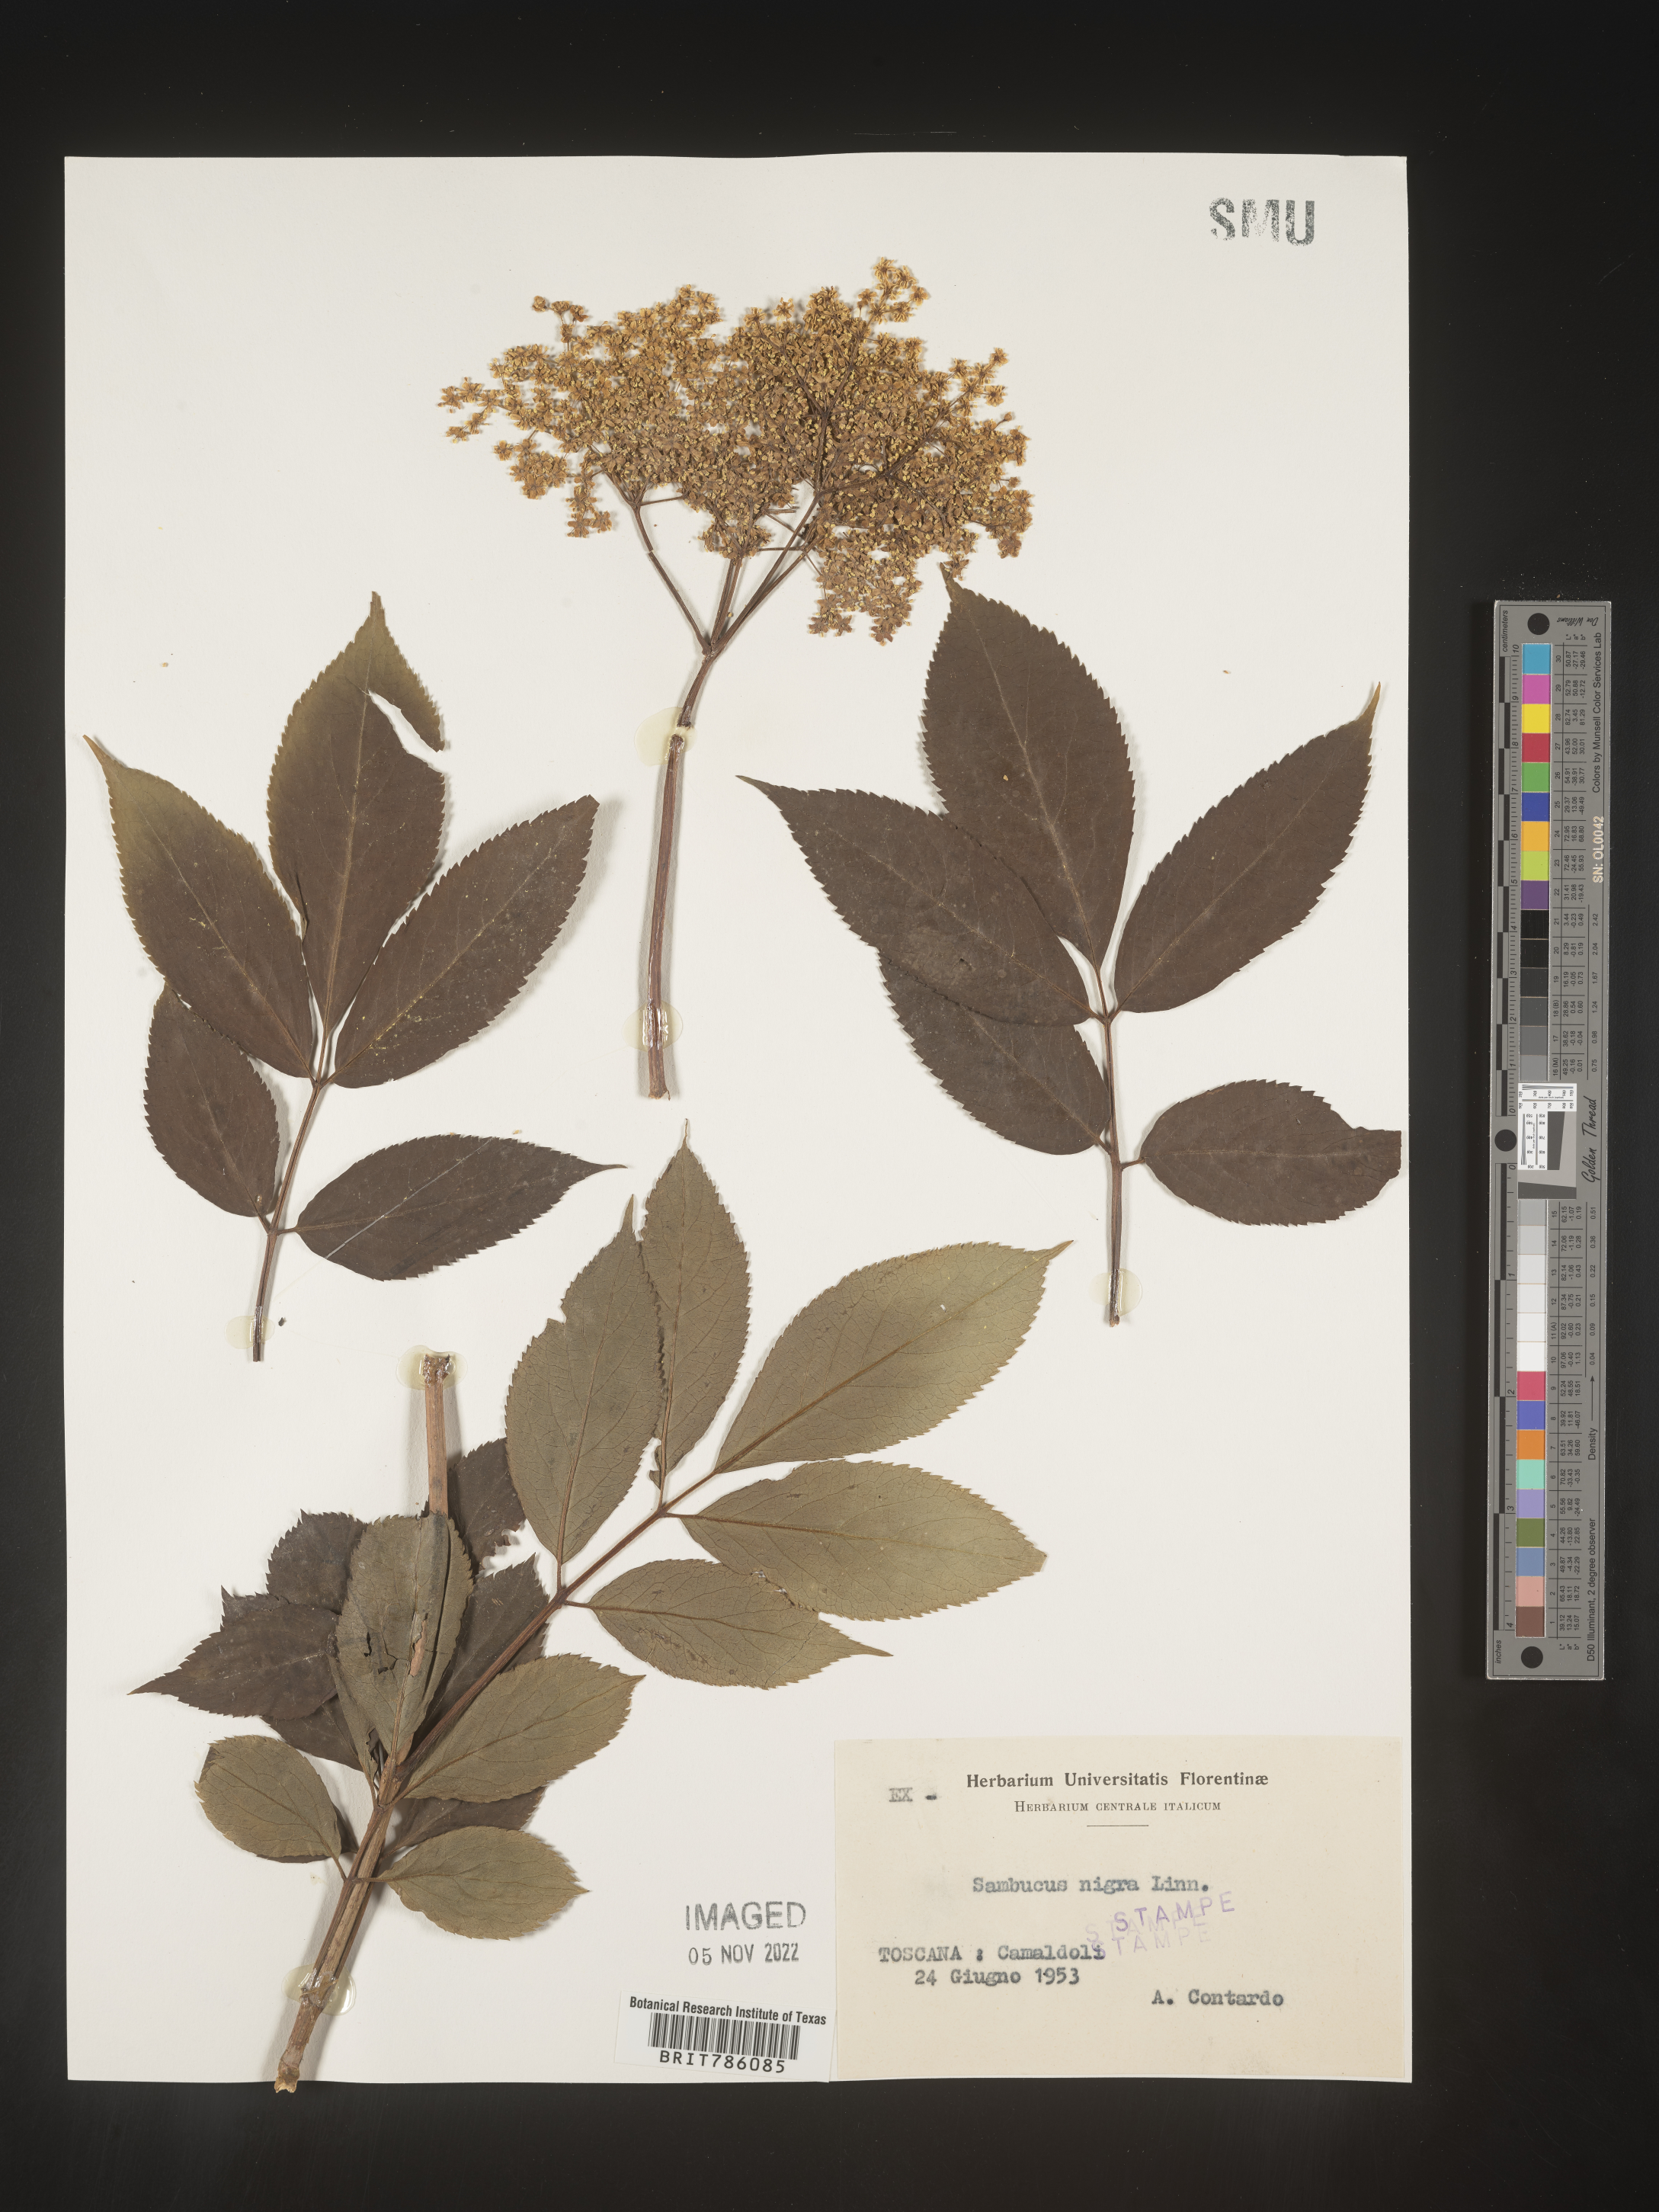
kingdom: Plantae
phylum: Tracheophyta
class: Magnoliopsida
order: Dipsacales
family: Viburnaceae
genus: Sambucus
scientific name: Sambucus
